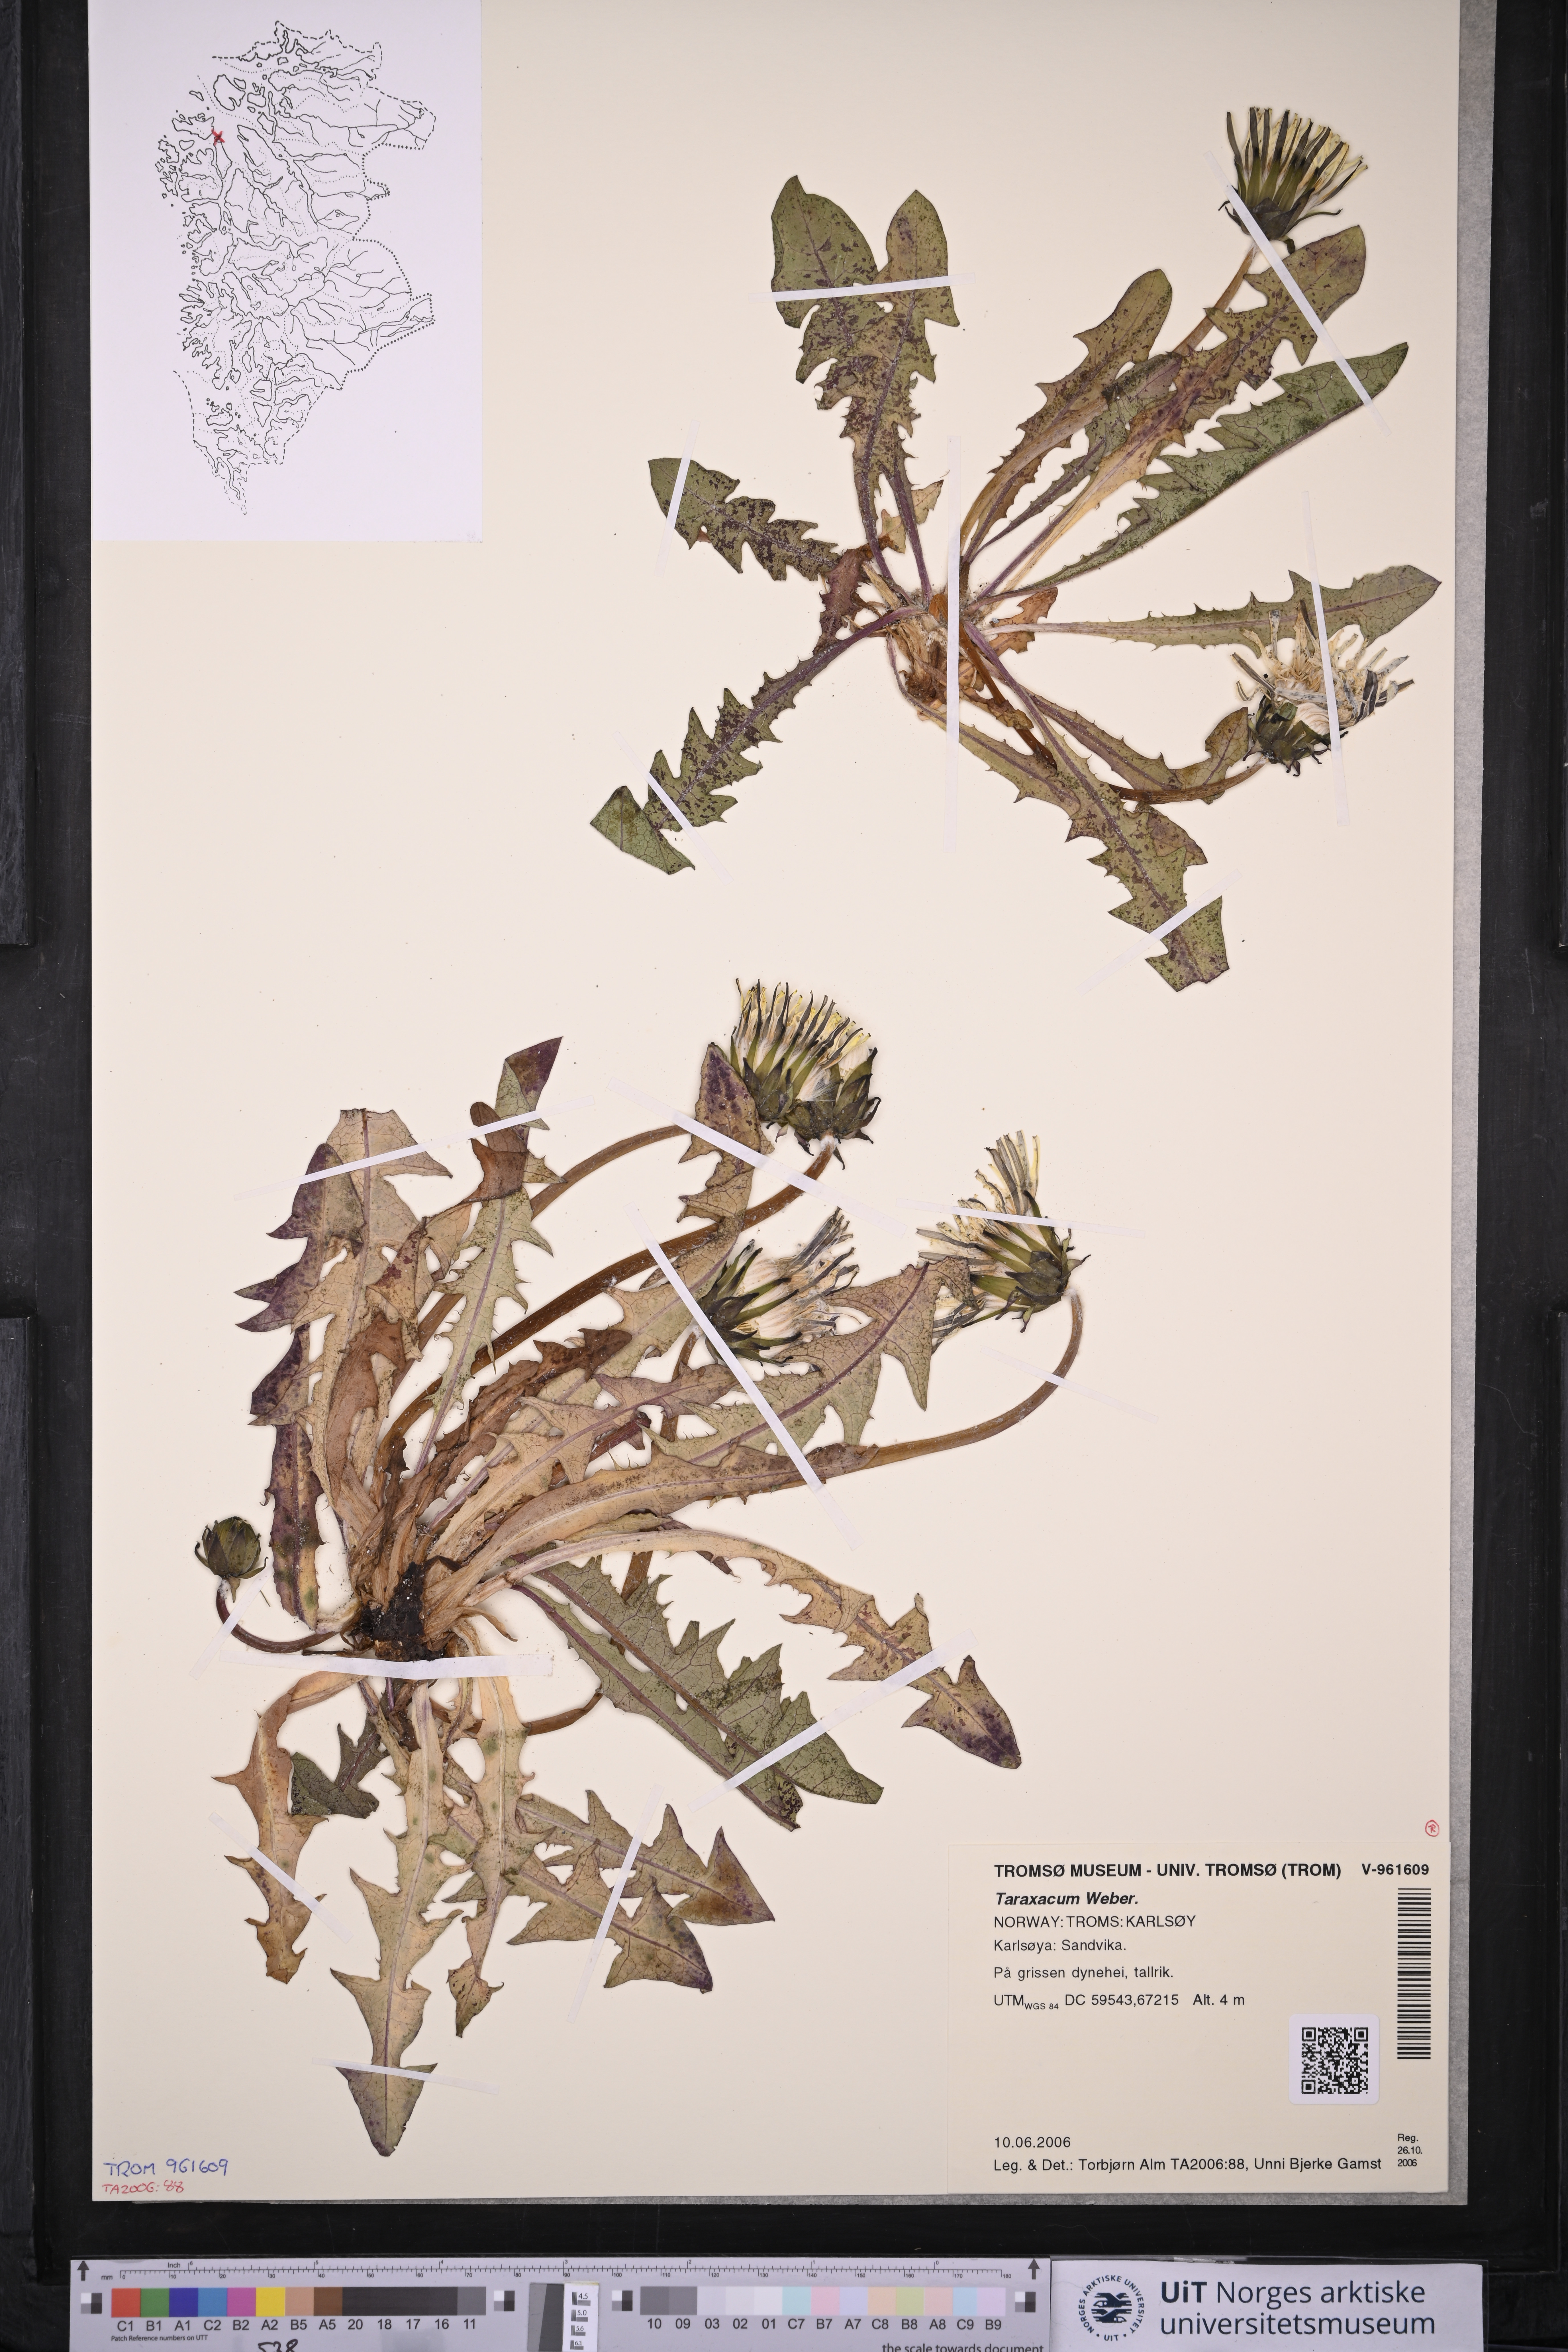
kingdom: Plantae
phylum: Tracheophyta
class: Magnoliopsida
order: Asterales
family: Asteraceae
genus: Taraxacum
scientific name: Taraxacum
